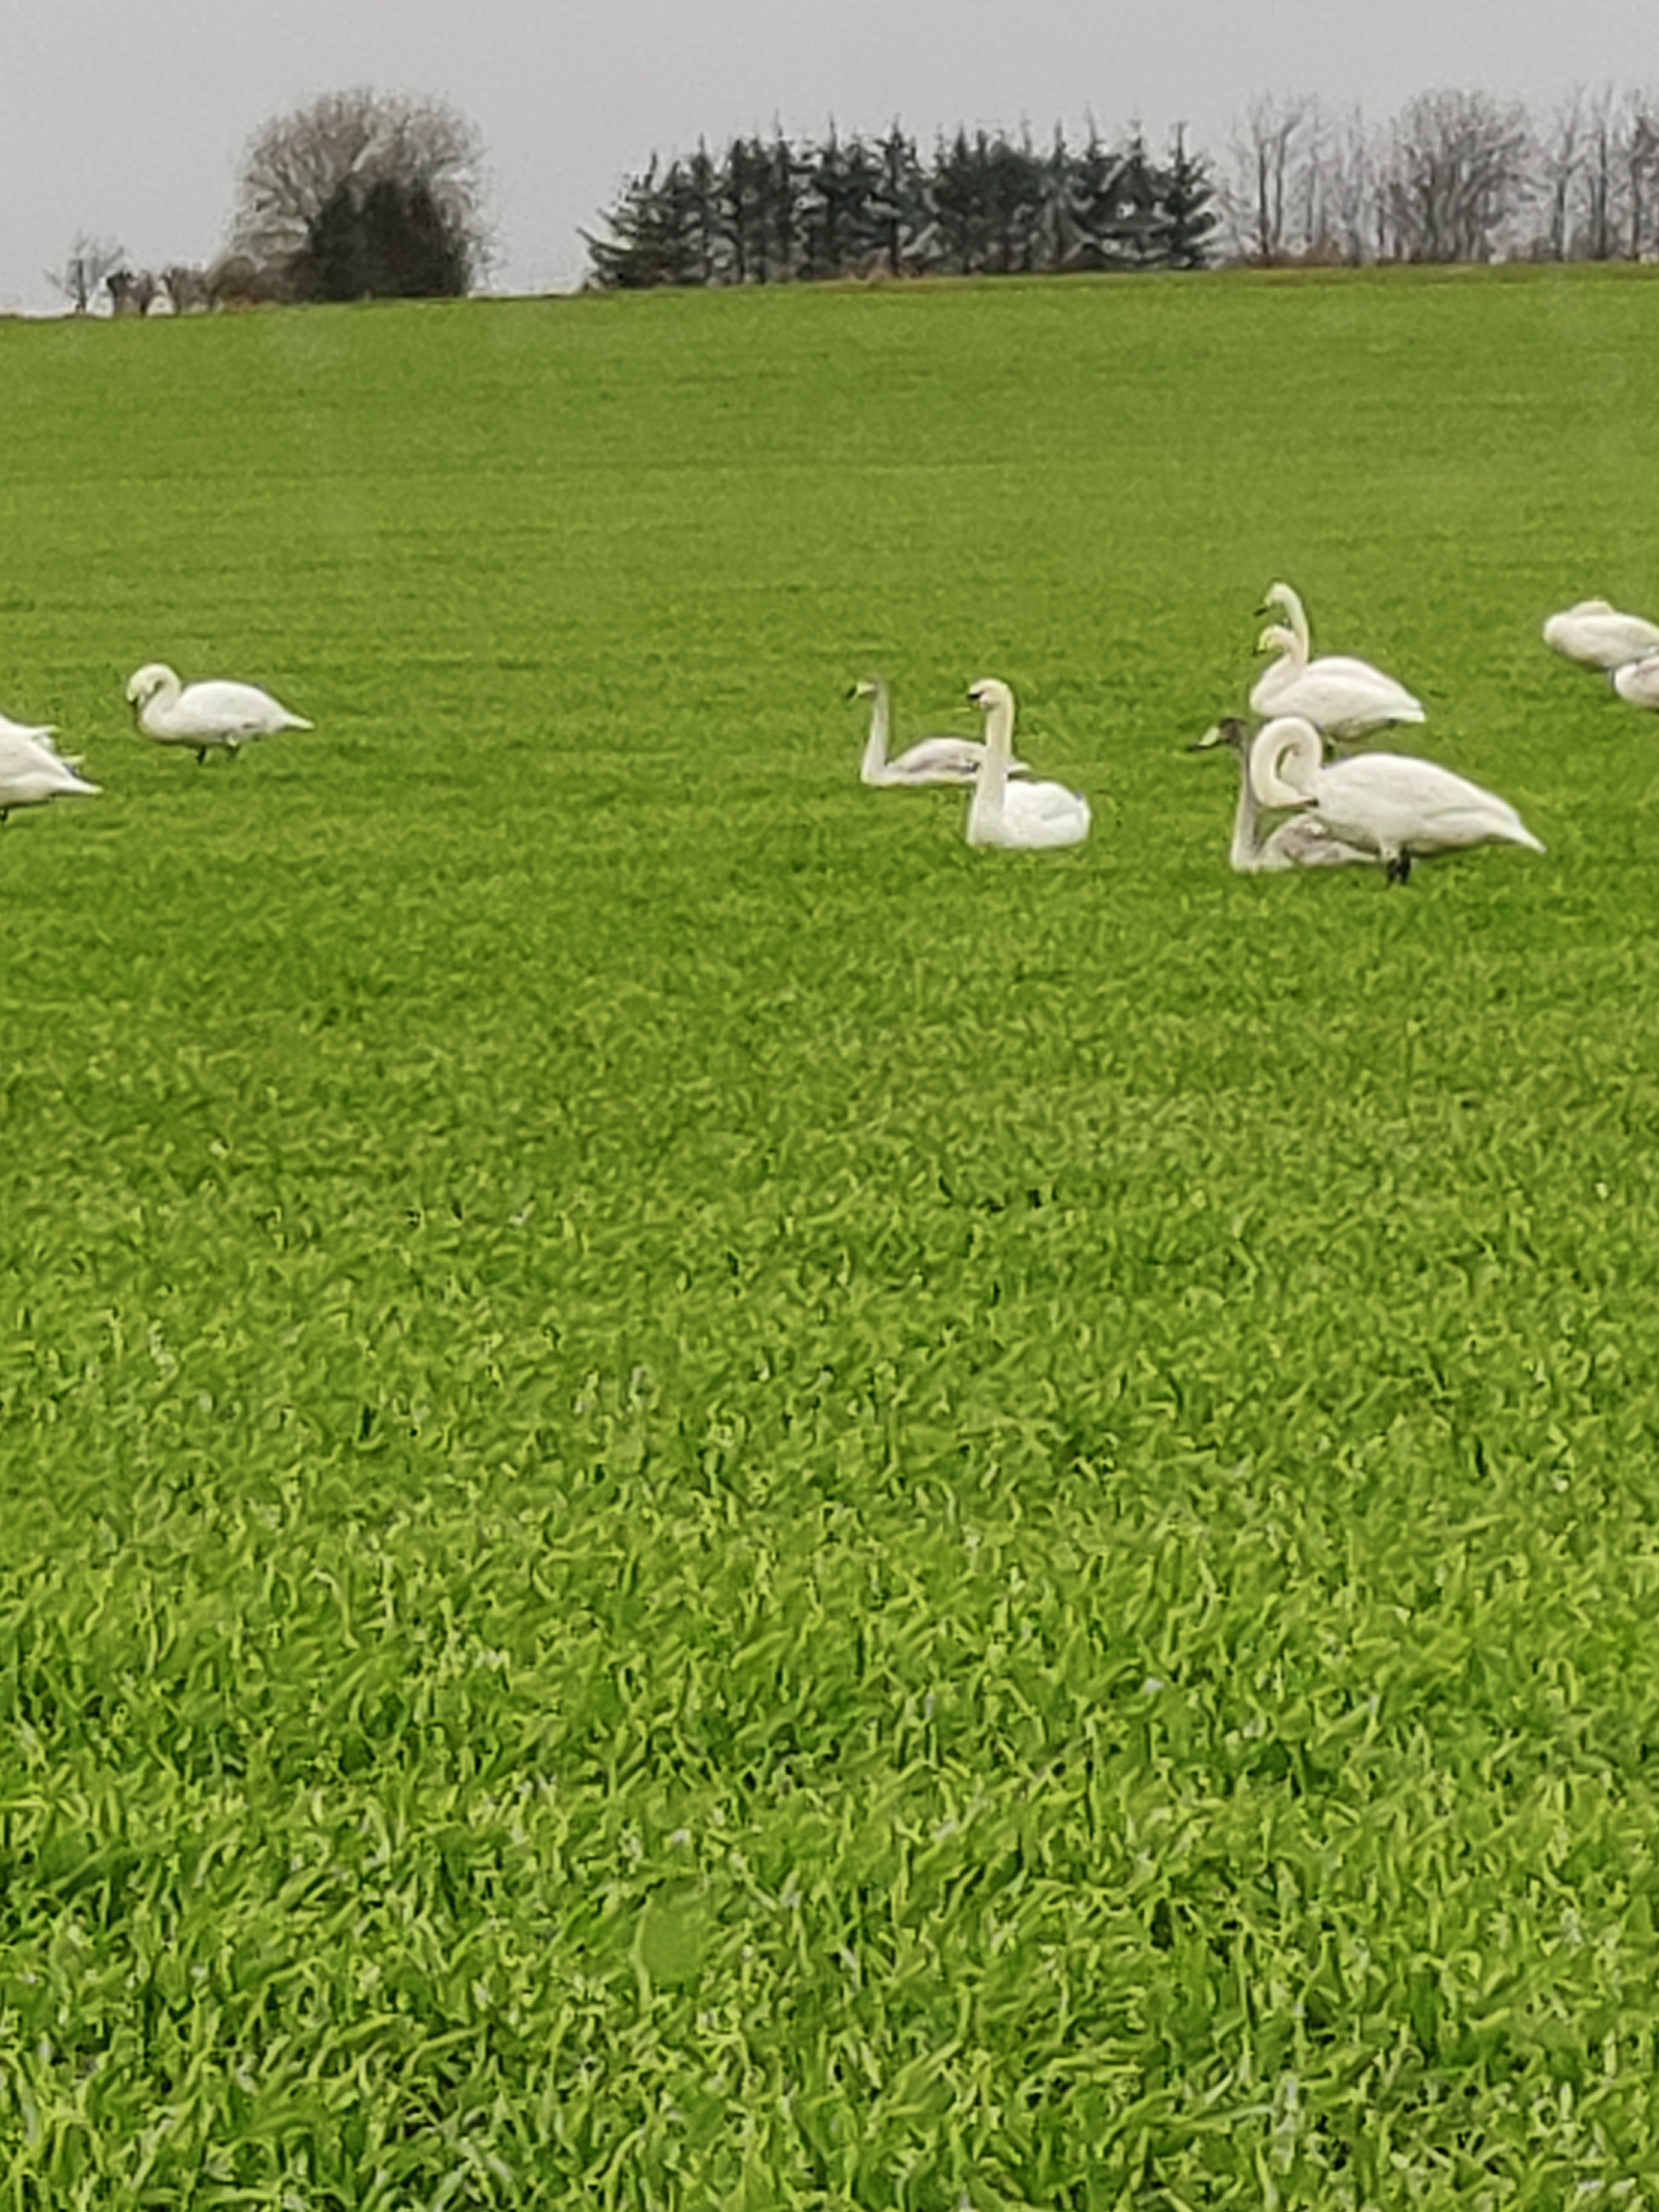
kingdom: Animalia
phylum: Chordata
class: Aves
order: Anseriformes
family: Anatidae
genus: Cygnus
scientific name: Cygnus cygnus
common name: Sangsvane
